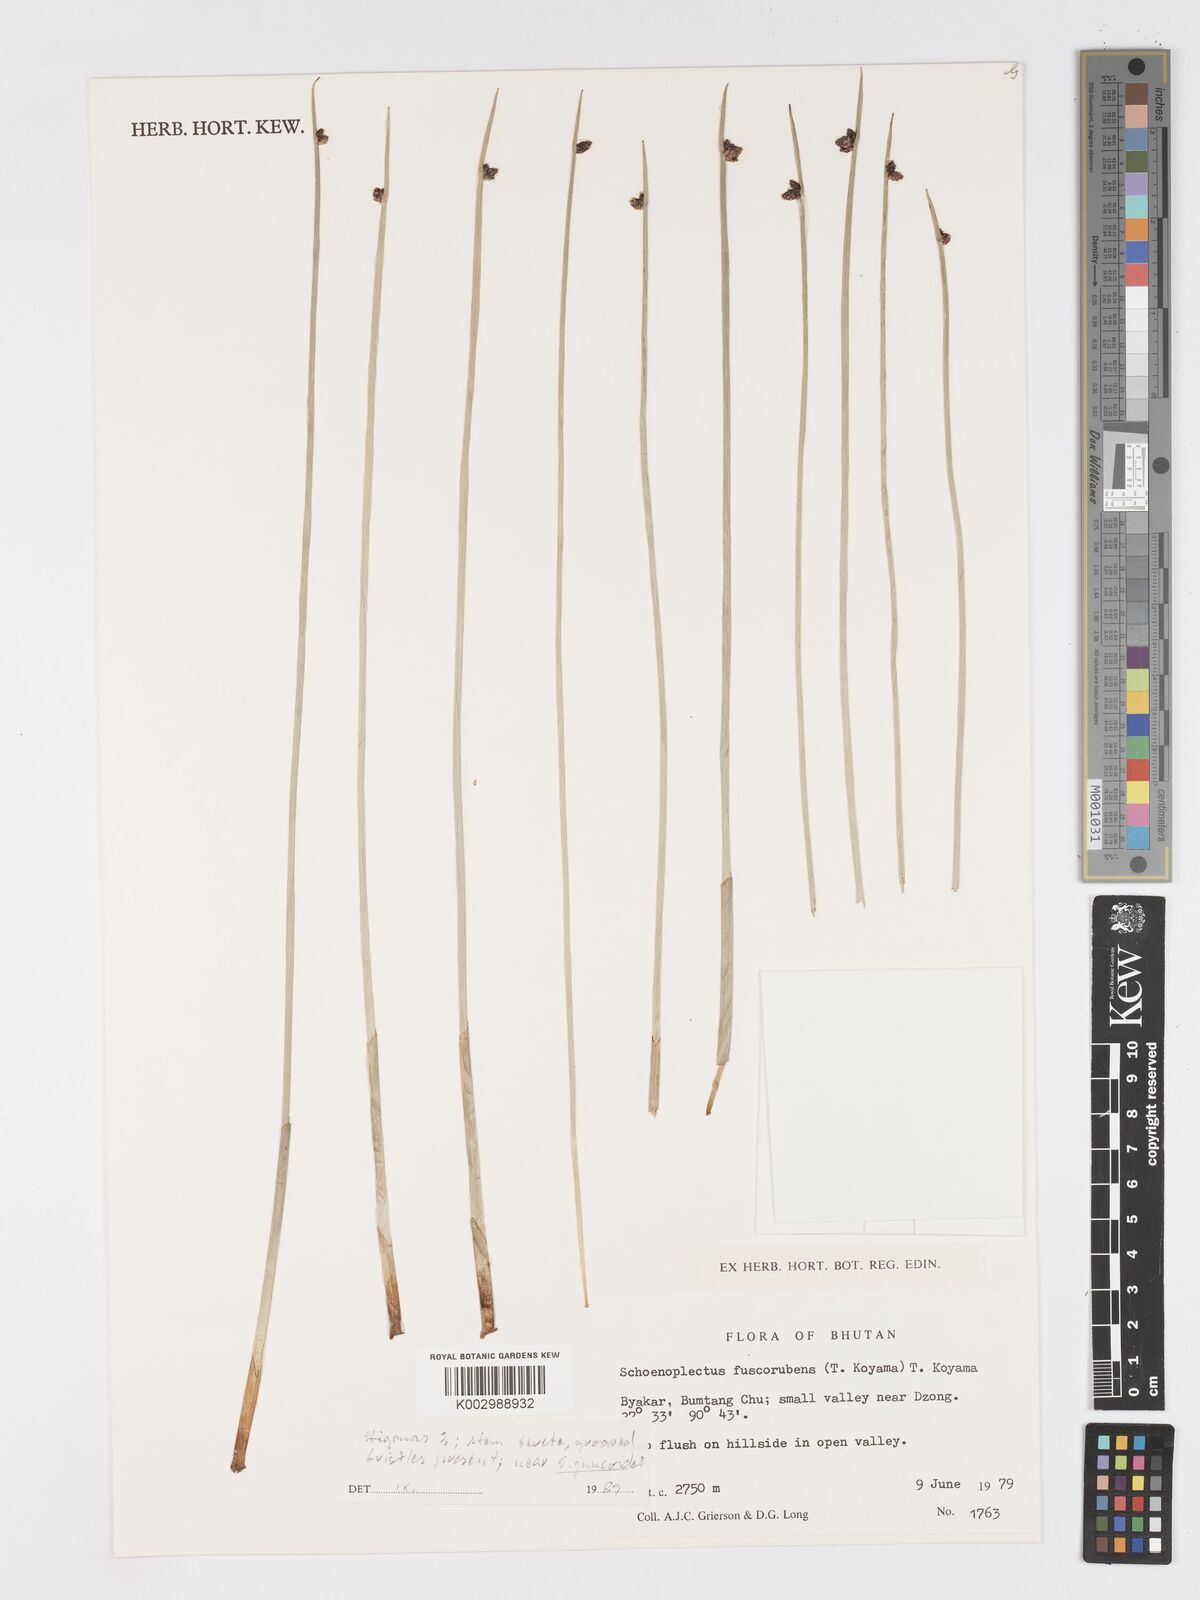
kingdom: Plantae
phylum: Tracheophyta
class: Liliopsida
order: Poales
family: Cyperaceae
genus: Schoenoplectiella
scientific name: Schoenoplectiella fuscorubens
